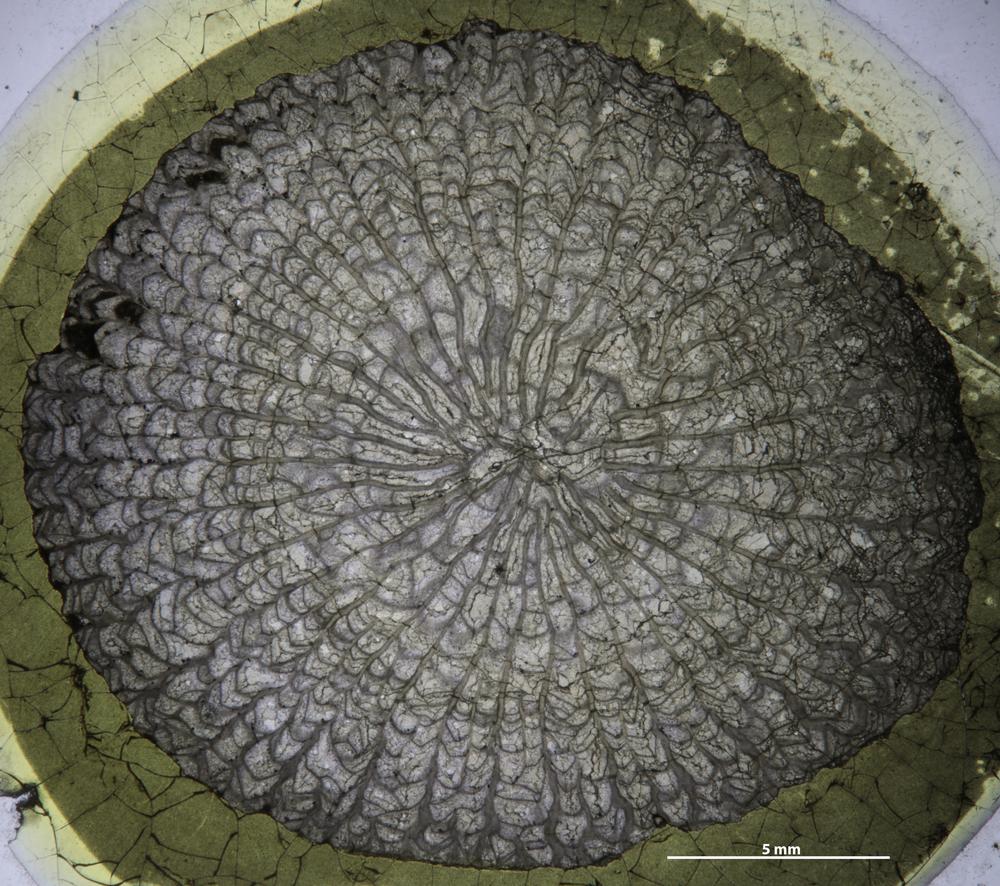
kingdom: Animalia
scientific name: Animalia
